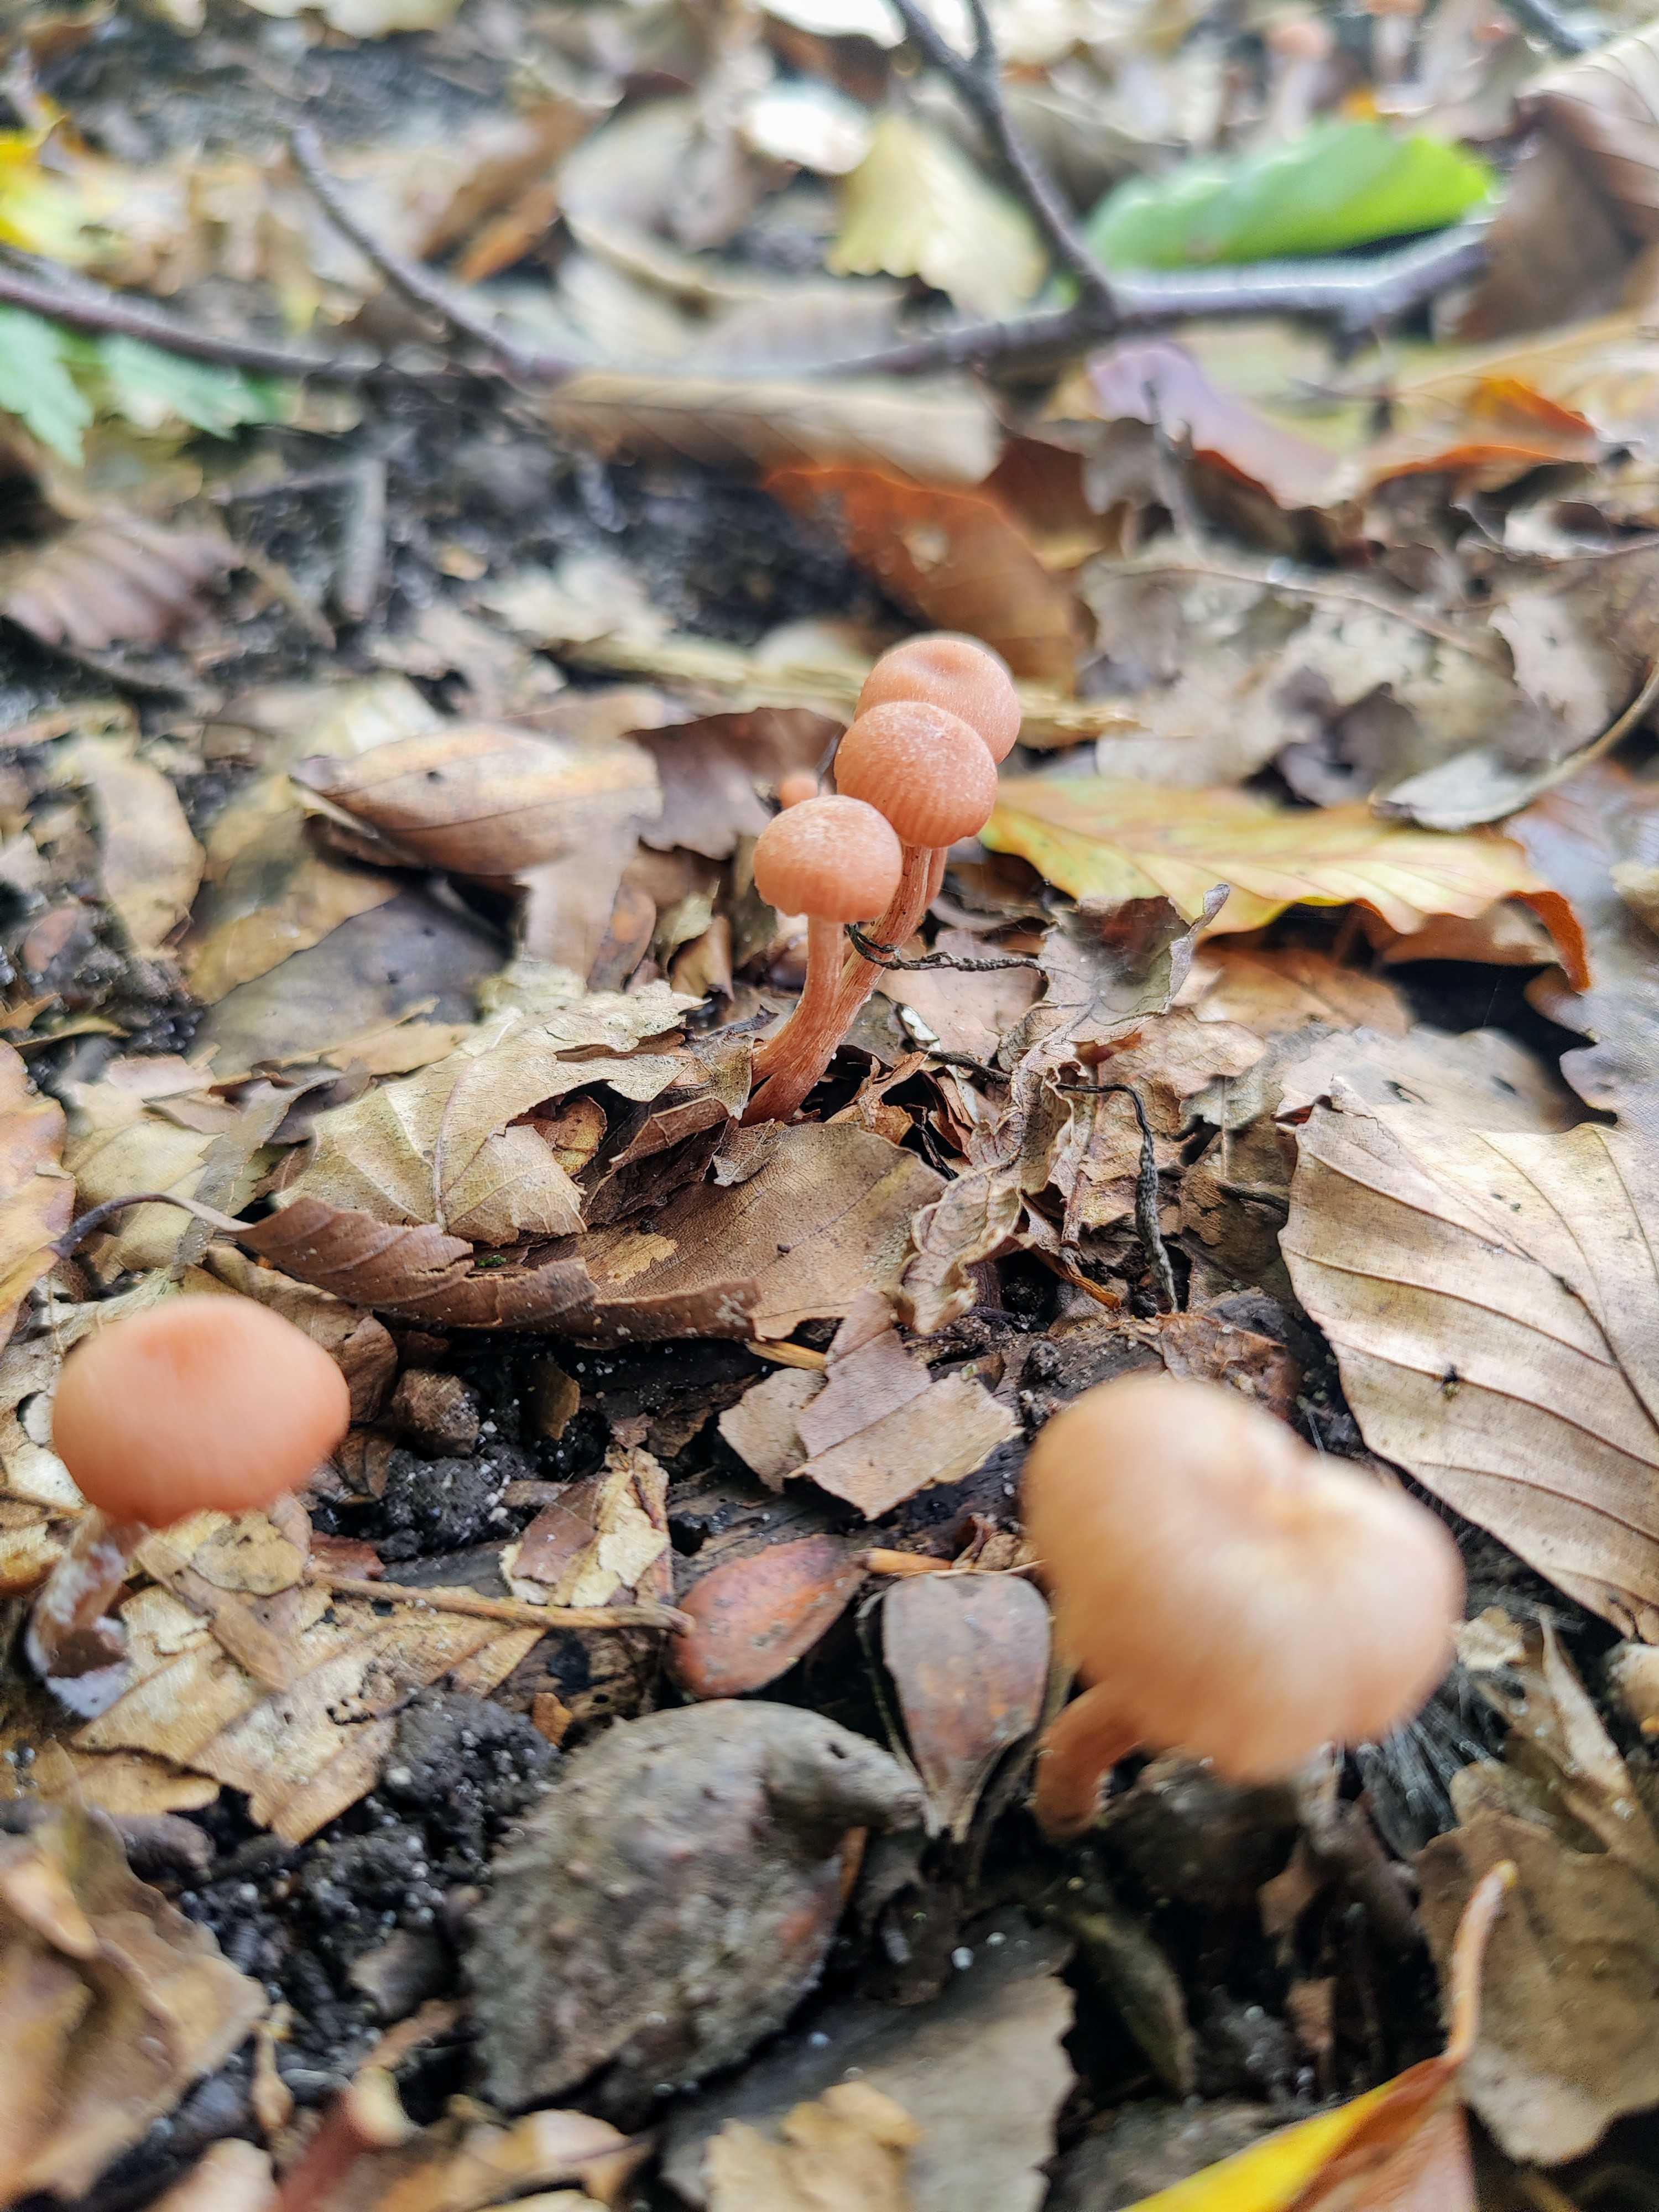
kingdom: Fungi
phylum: Basidiomycota
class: Agaricomycetes
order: Agaricales
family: Hydnangiaceae
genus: Laccaria
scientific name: Laccaria laccata
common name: rød ametysthat
